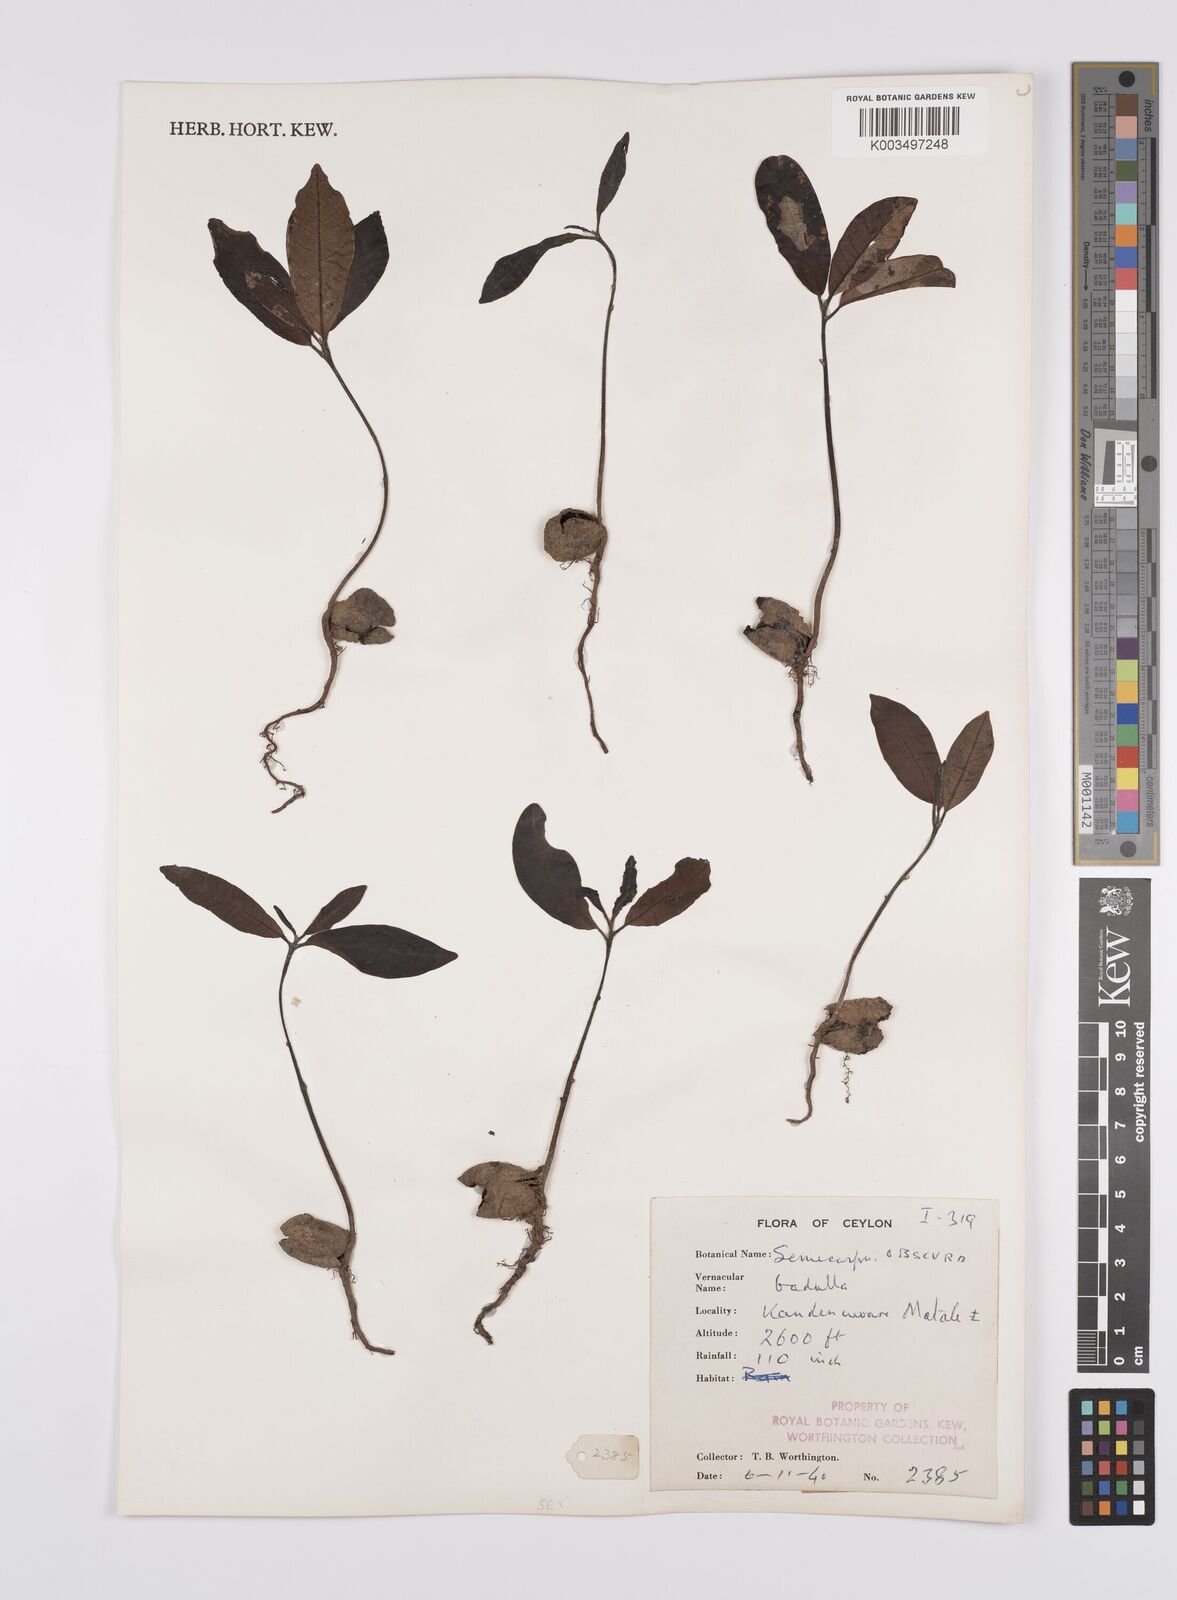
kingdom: Plantae
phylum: Tracheophyta
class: Magnoliopsida
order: Sapindales
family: Anacardiaceae
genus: Semecarpus
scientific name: Semecarpus walkeri
